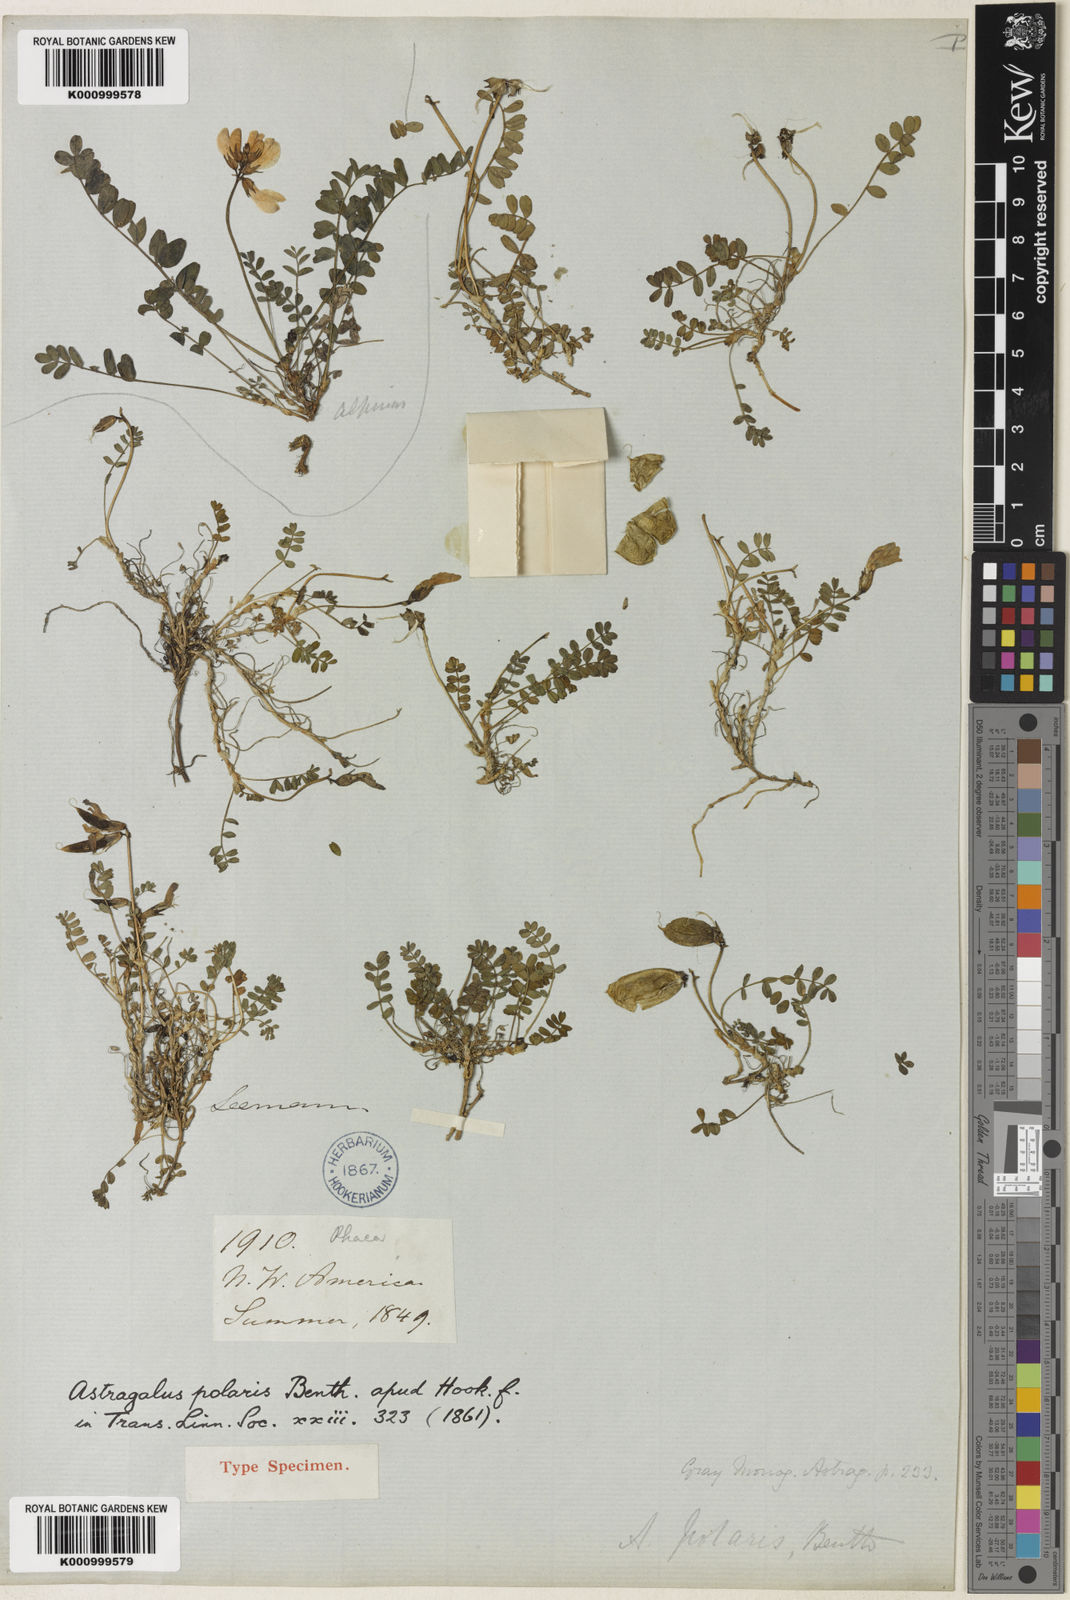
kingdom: Plantae
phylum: Tracheophyta
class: Magnoliopsida
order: Fabales
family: Fabaceae
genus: Astragalus
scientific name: Astragalus polaris
